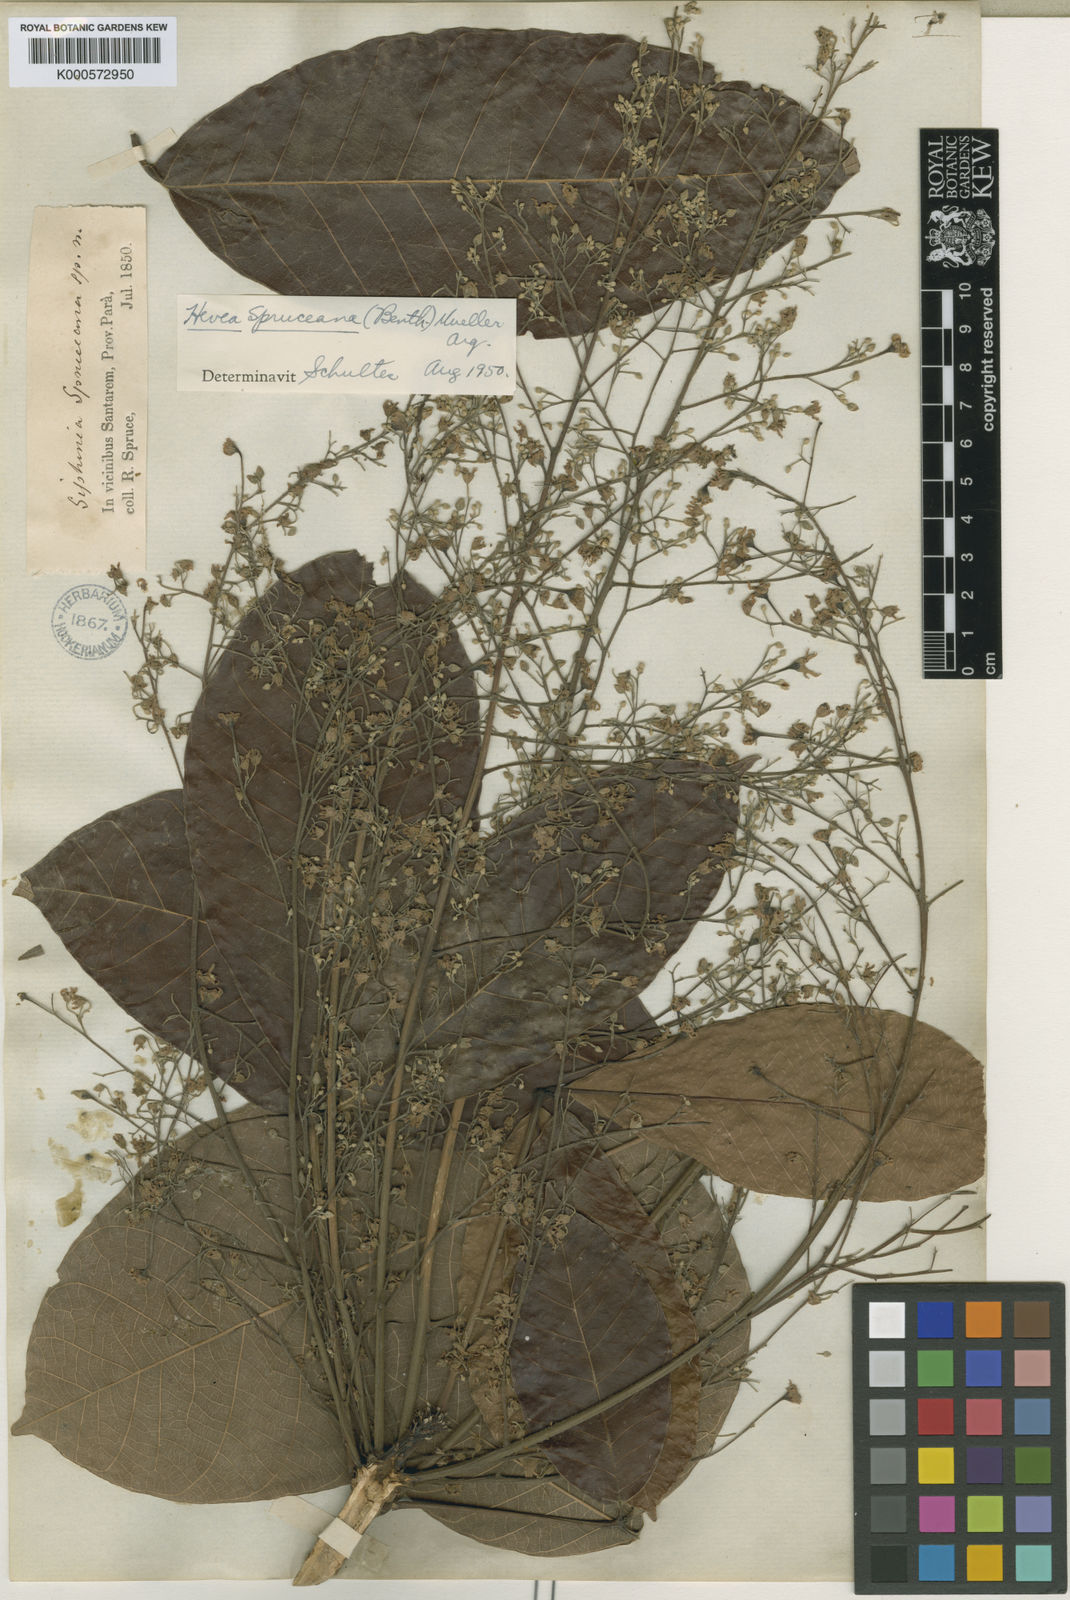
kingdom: Plantae
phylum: Tracheophyta
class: Magnoliopsida
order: Malpighiales
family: Euphorbiaceae
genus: Hevea
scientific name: Hevea
